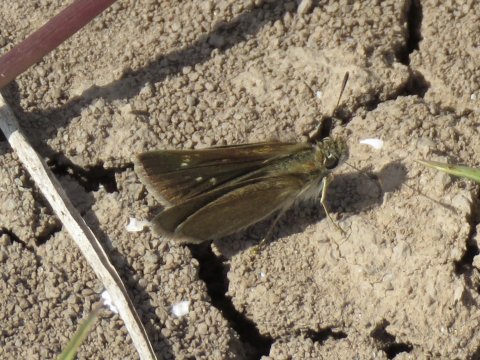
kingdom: Animalia
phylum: Arthropoda
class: Insecta
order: Lepidoptera
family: Hesperiidae
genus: Lerodea
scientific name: Lerodea eufala
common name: Eufala Skipper
